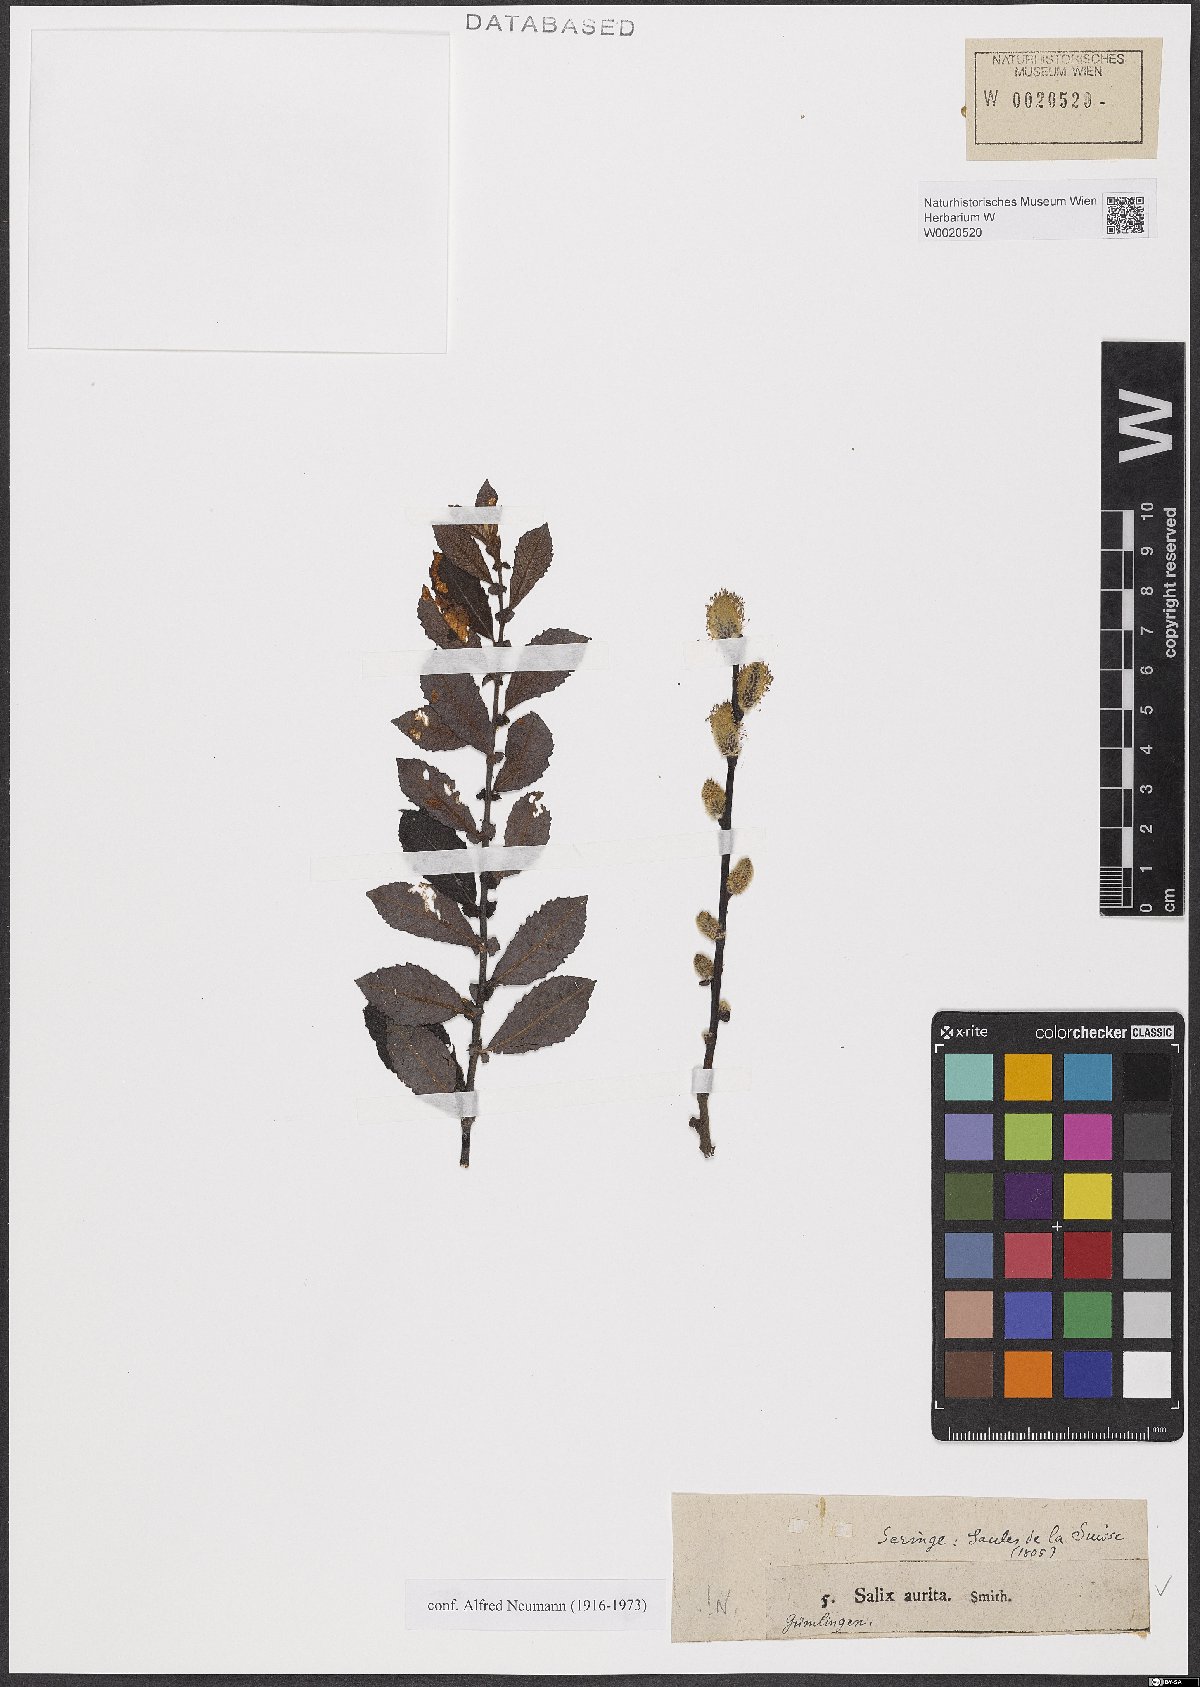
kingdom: Plantae
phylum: Tracheophyta
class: Magnoliopsida
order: Malpighiales
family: Salicaceae
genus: Salix
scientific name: Salix aurita
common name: Eared willow
